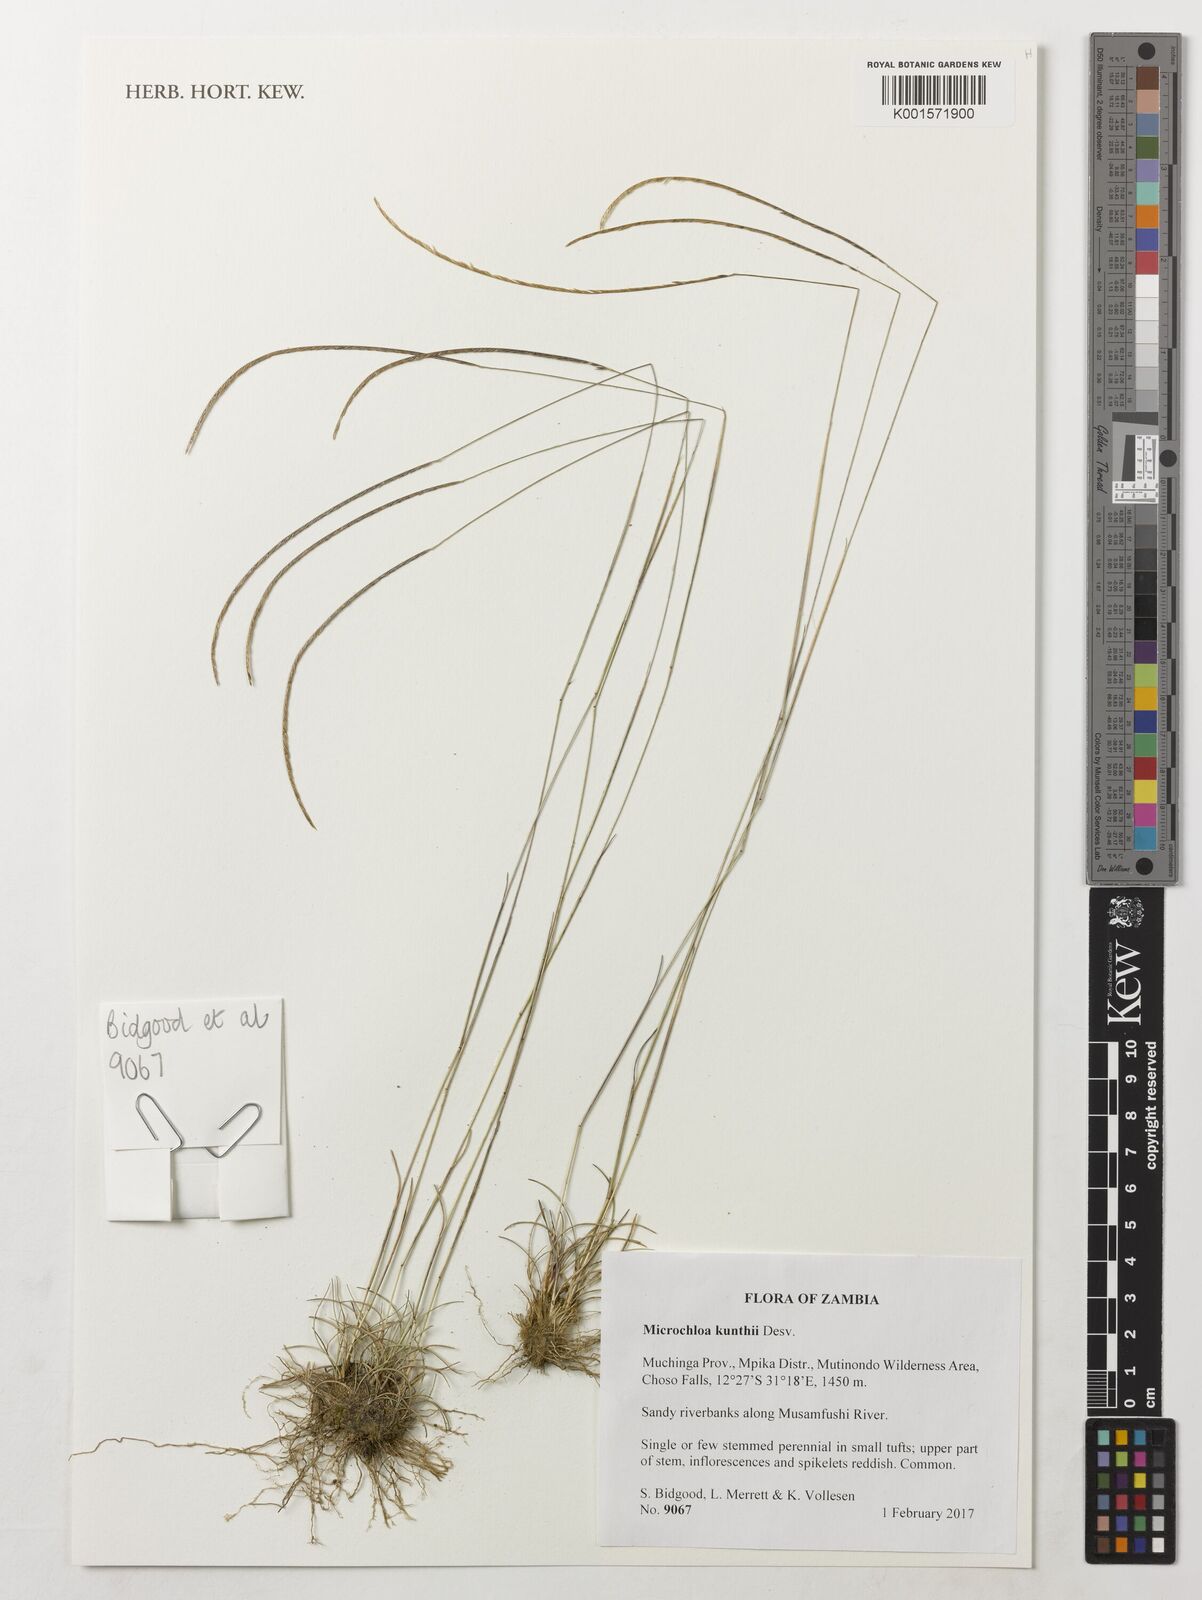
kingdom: Plantae
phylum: Tracheophyta
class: Liliopsida
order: Poales
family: Poaceae
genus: Microchloa
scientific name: Microchloa kunthii
